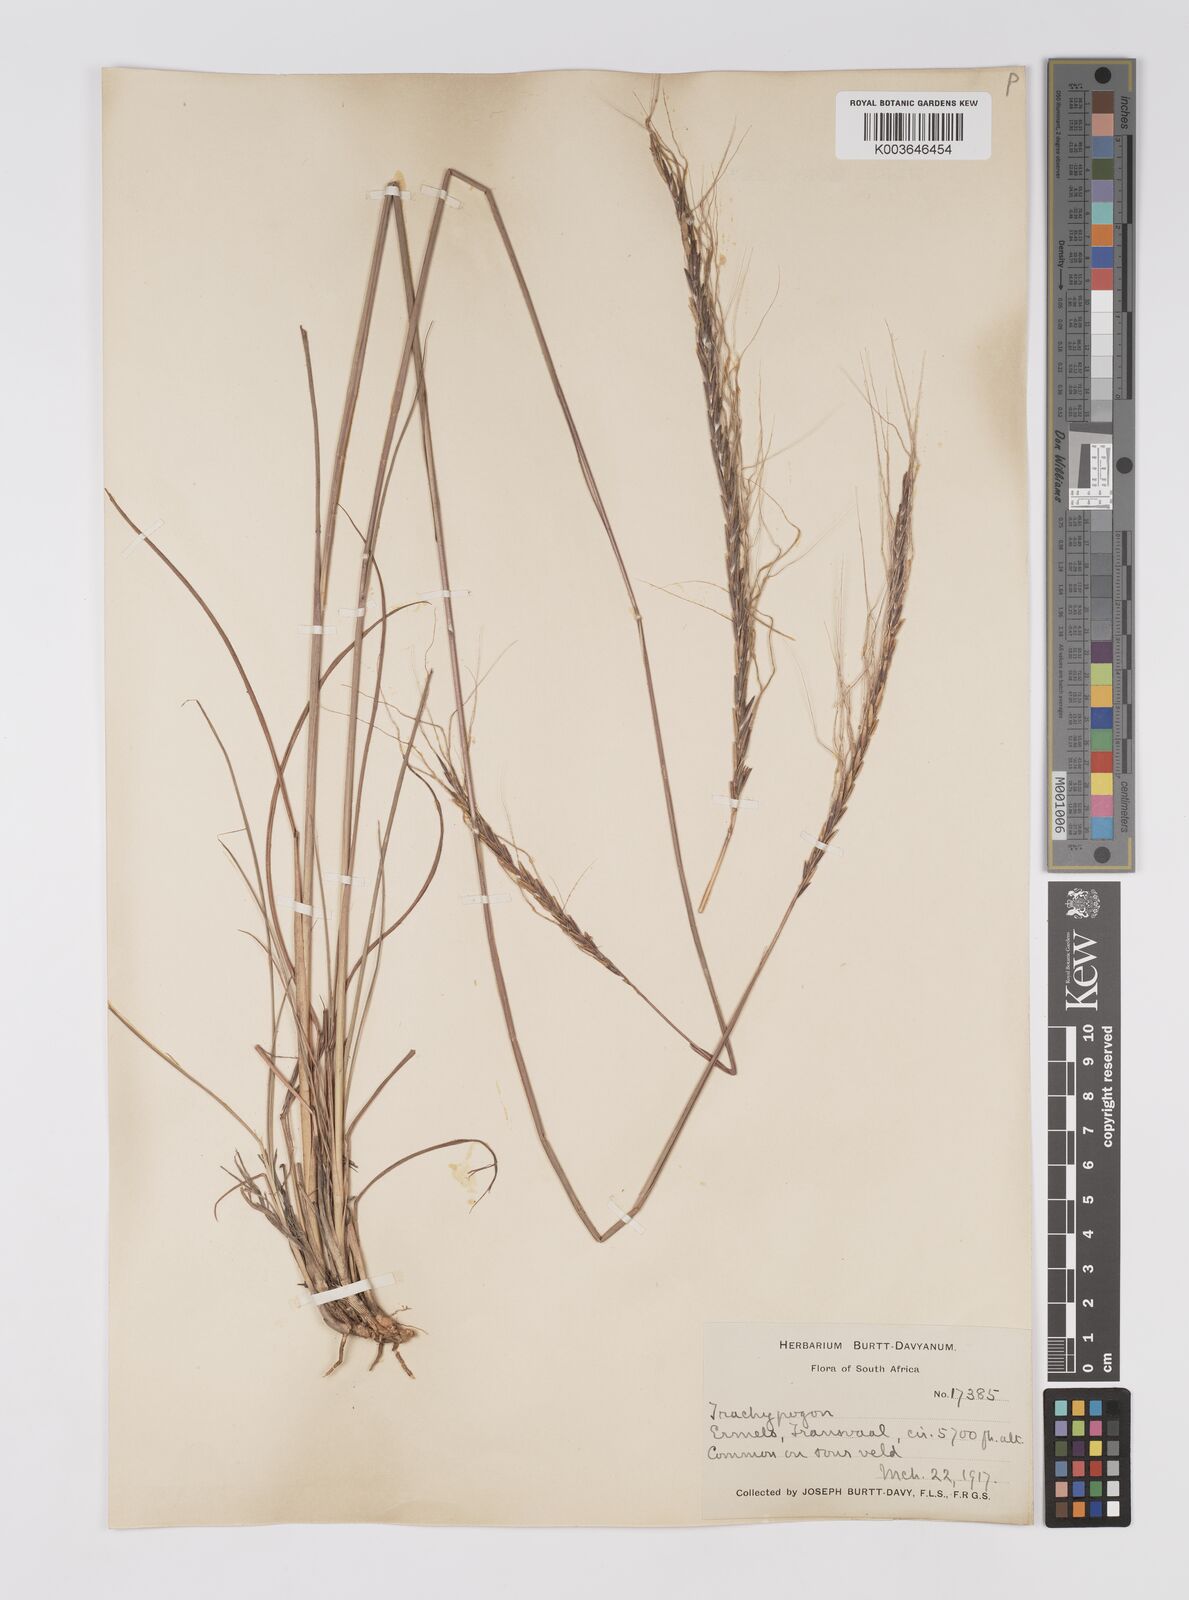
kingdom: Plantae
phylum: Tracheophyta
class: Liliopsida
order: Poales
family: Poaceae
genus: Trachypogon
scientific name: Trachypogon spicatus
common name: Crinkle-awn
